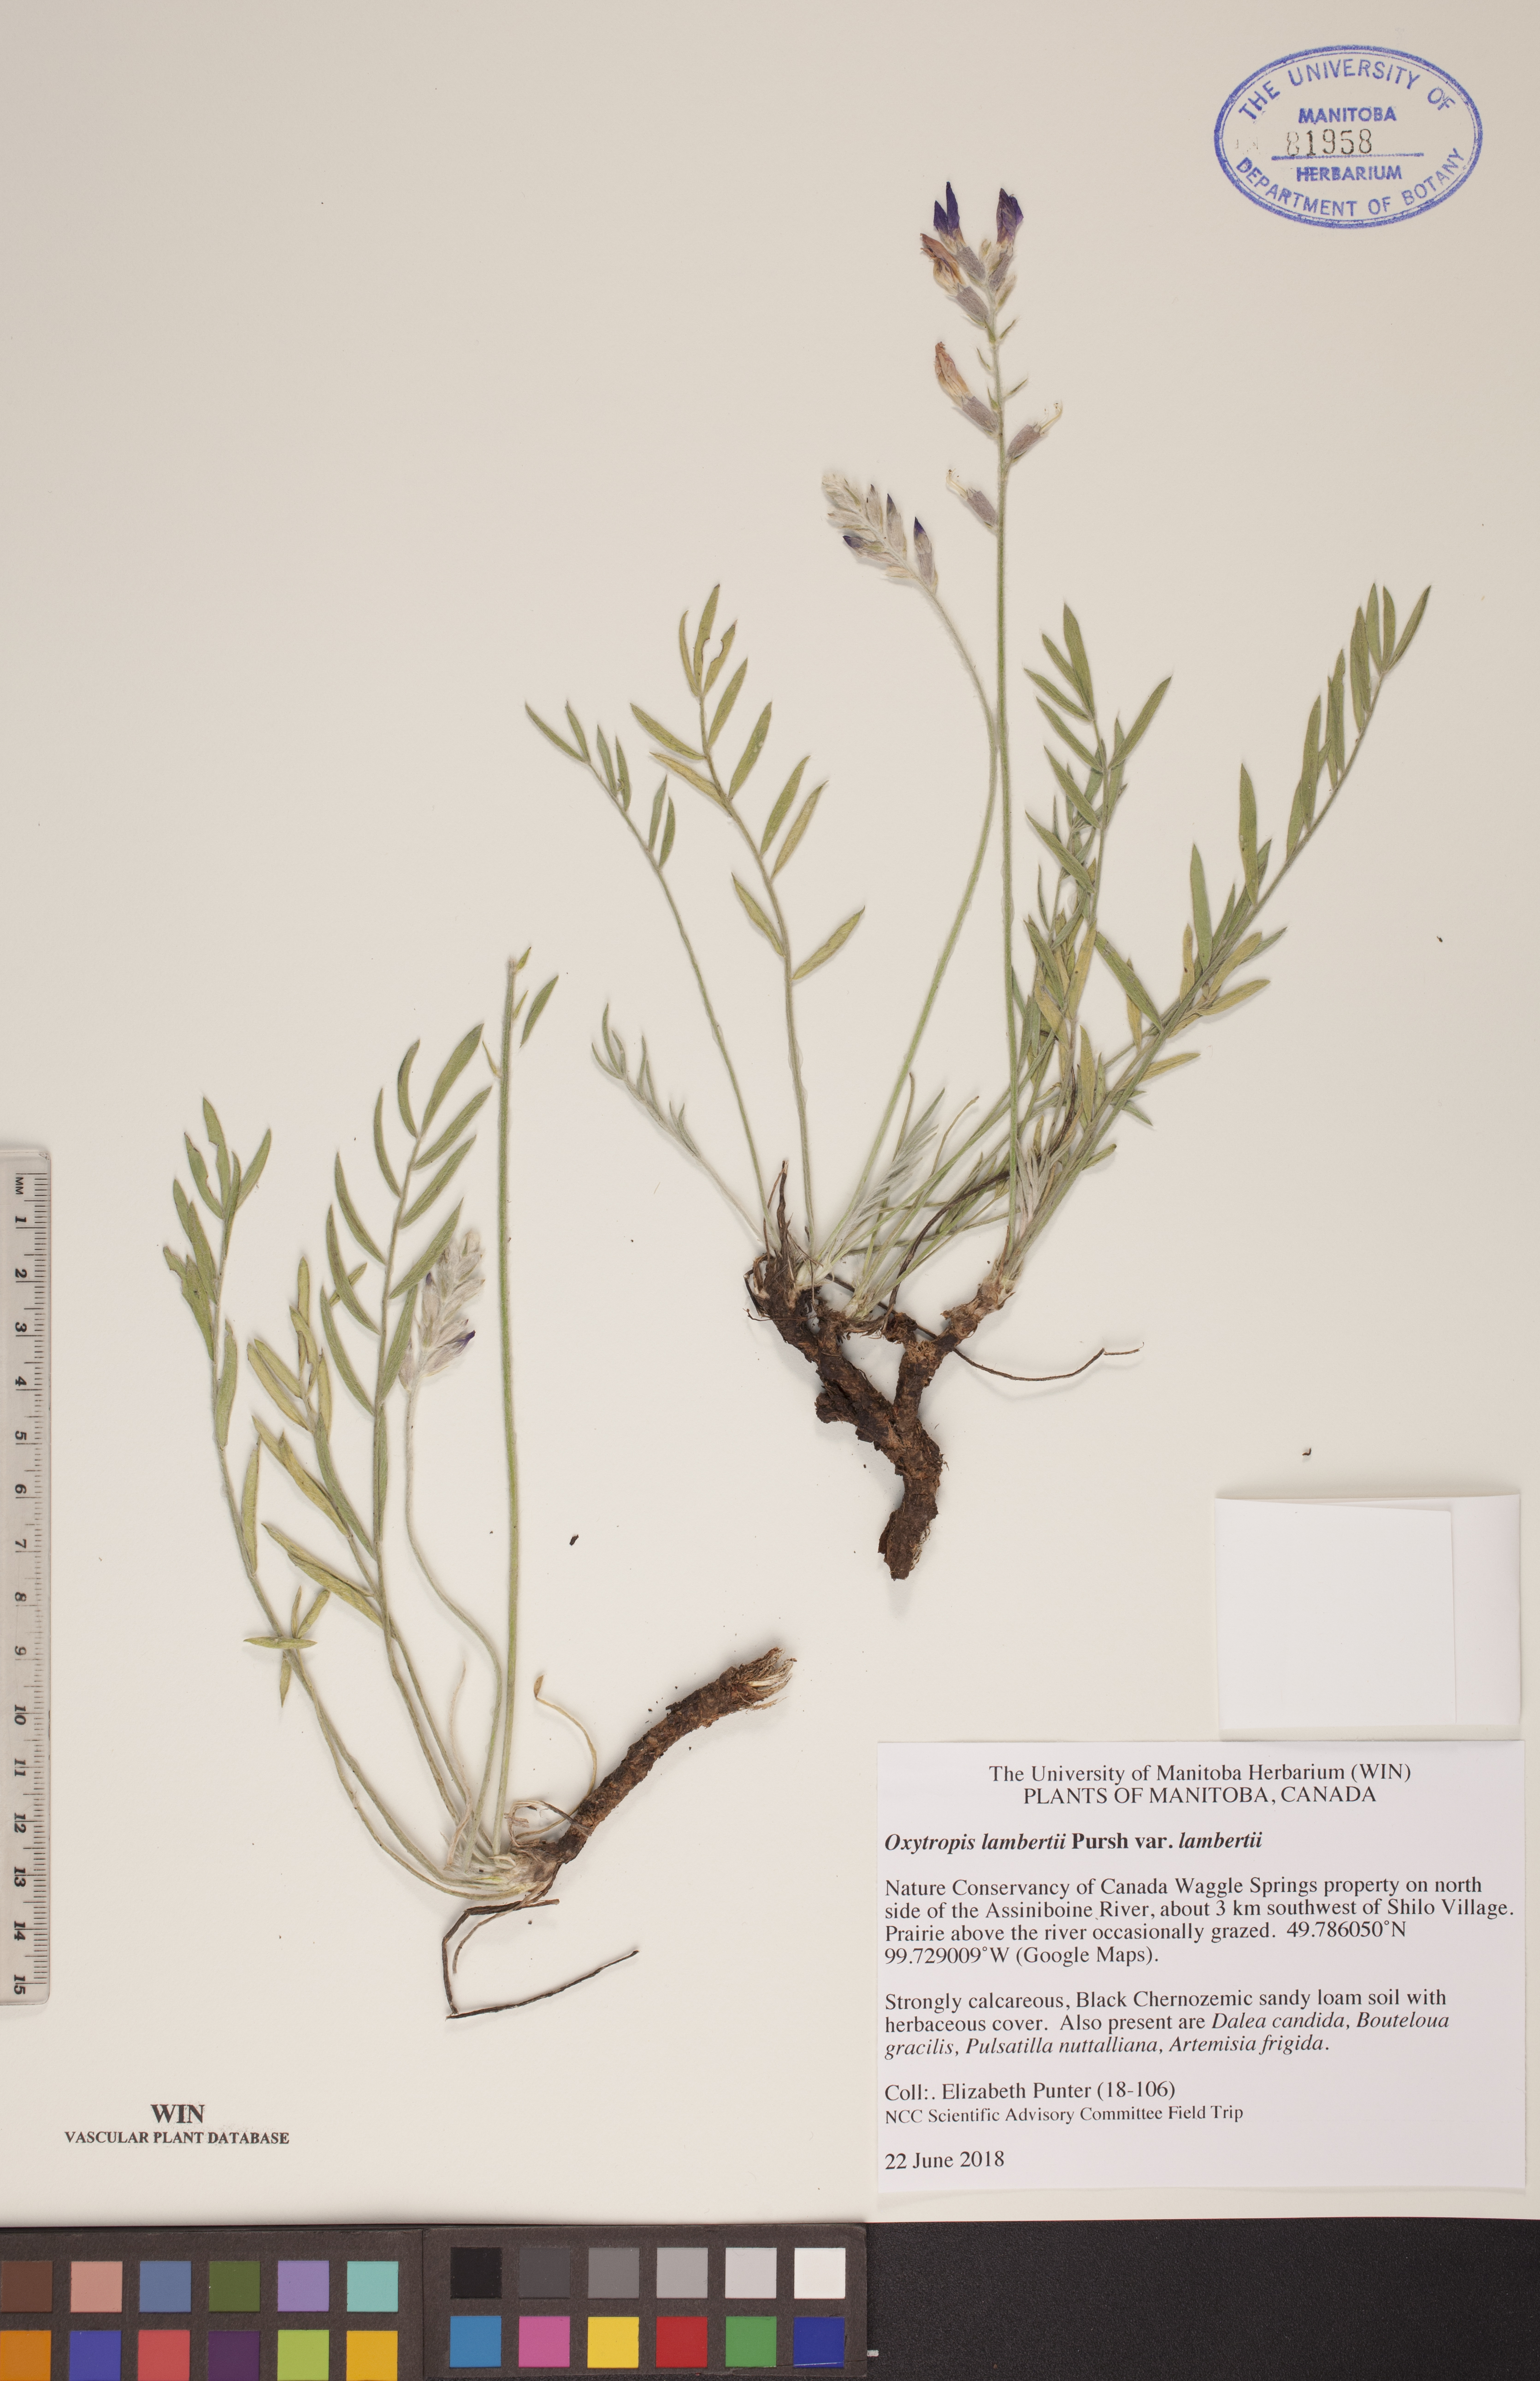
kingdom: Plantae
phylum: Tracheophyta
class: Magnoliopsida
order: Fabales
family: Fabaceae
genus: Oxytropis
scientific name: Oxytropis lambertii
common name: Purple locoweed
